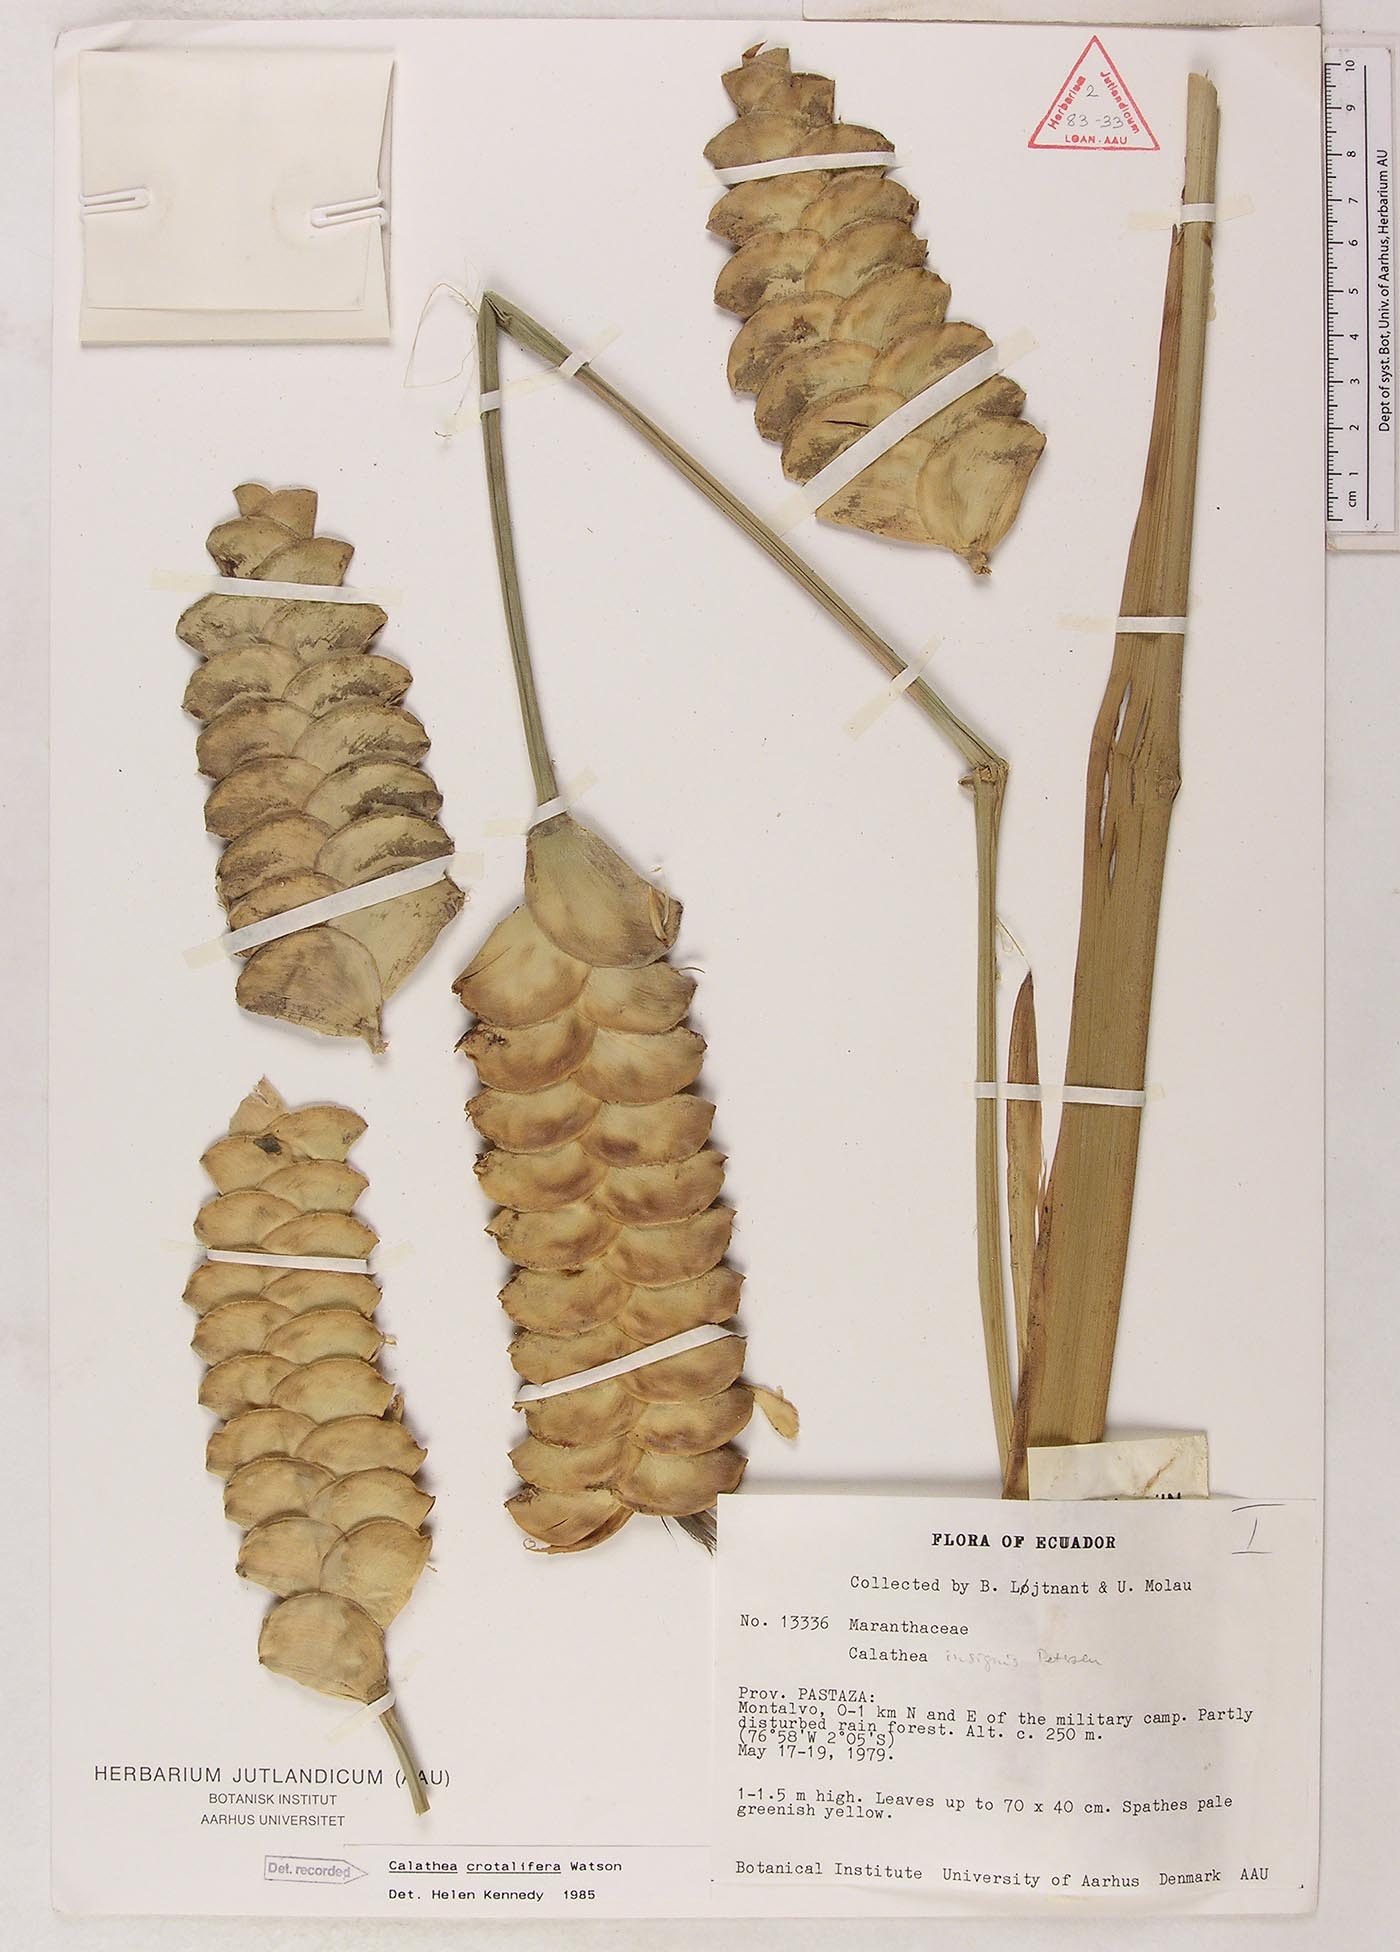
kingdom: Plantae
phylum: Tracheophyta
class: Liliopsida
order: Zingiberales
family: Marantaceae
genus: Calathea
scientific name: Calathea crotalifera
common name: Rattlesnake plant
